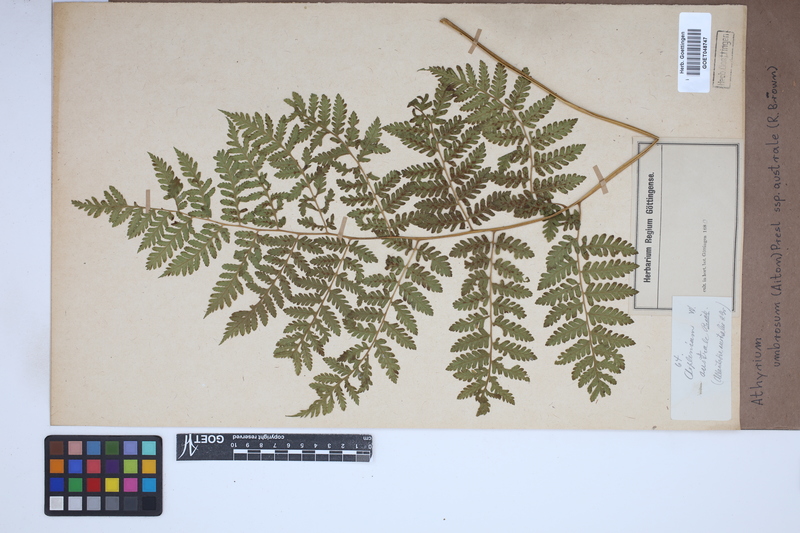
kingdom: Plantae
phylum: Tracheophyta
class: Polypodiopsida
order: Polypodiales
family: Athyriaceae
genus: Diplazium
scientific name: Diplazium australe
